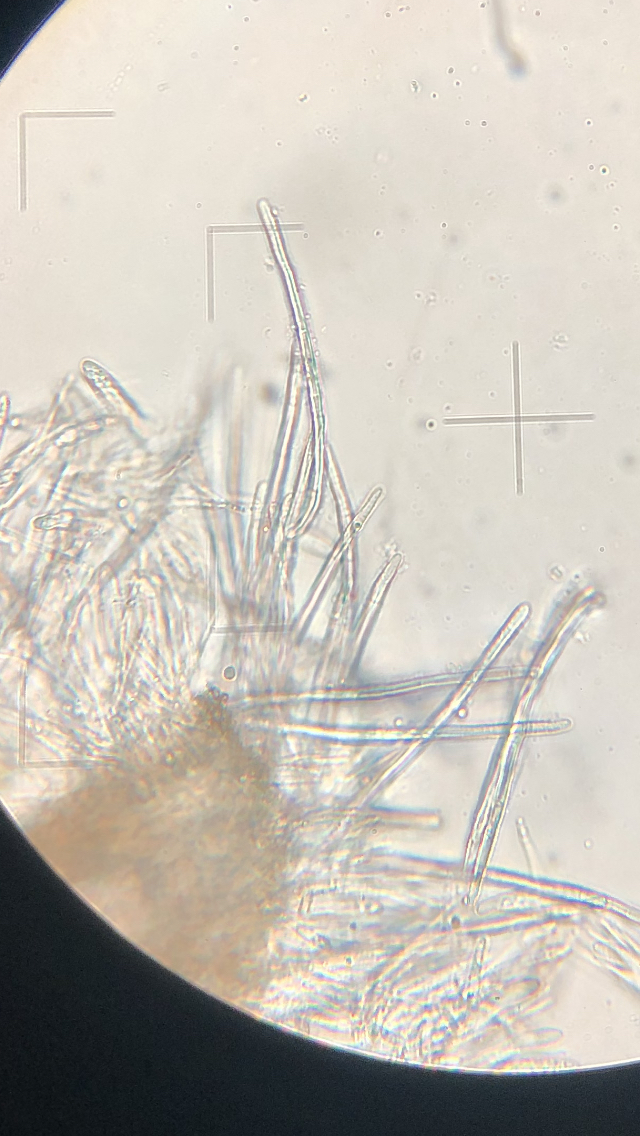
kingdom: Fungi
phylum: Ascomycota
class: Leotiomycetes
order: Helotiales
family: Hyaloscyphaceae
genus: Urceolella
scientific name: Urceolella corticicola
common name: pors-kugleskive
